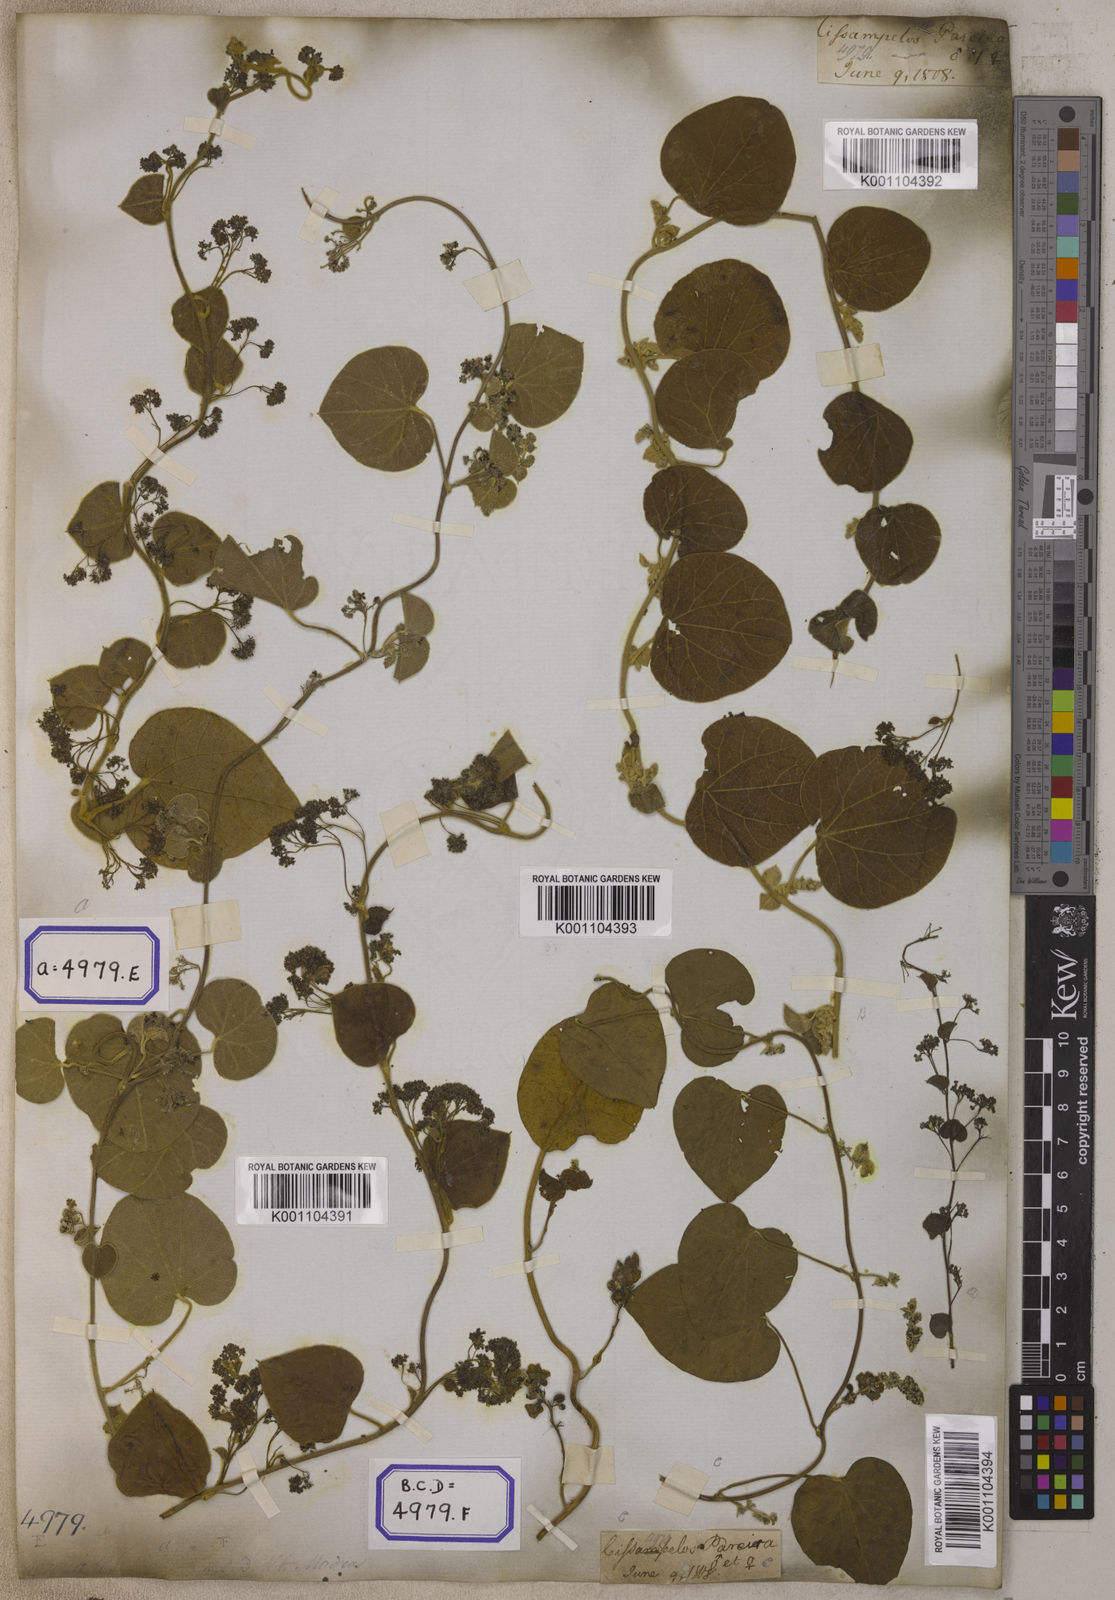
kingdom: Plantae
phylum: Tracheophyta
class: Magnoliopsida
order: Ranunculales
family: Menispermaceae
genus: Cissampelos
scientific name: Cissampelos pareira
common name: Velvetleaf
